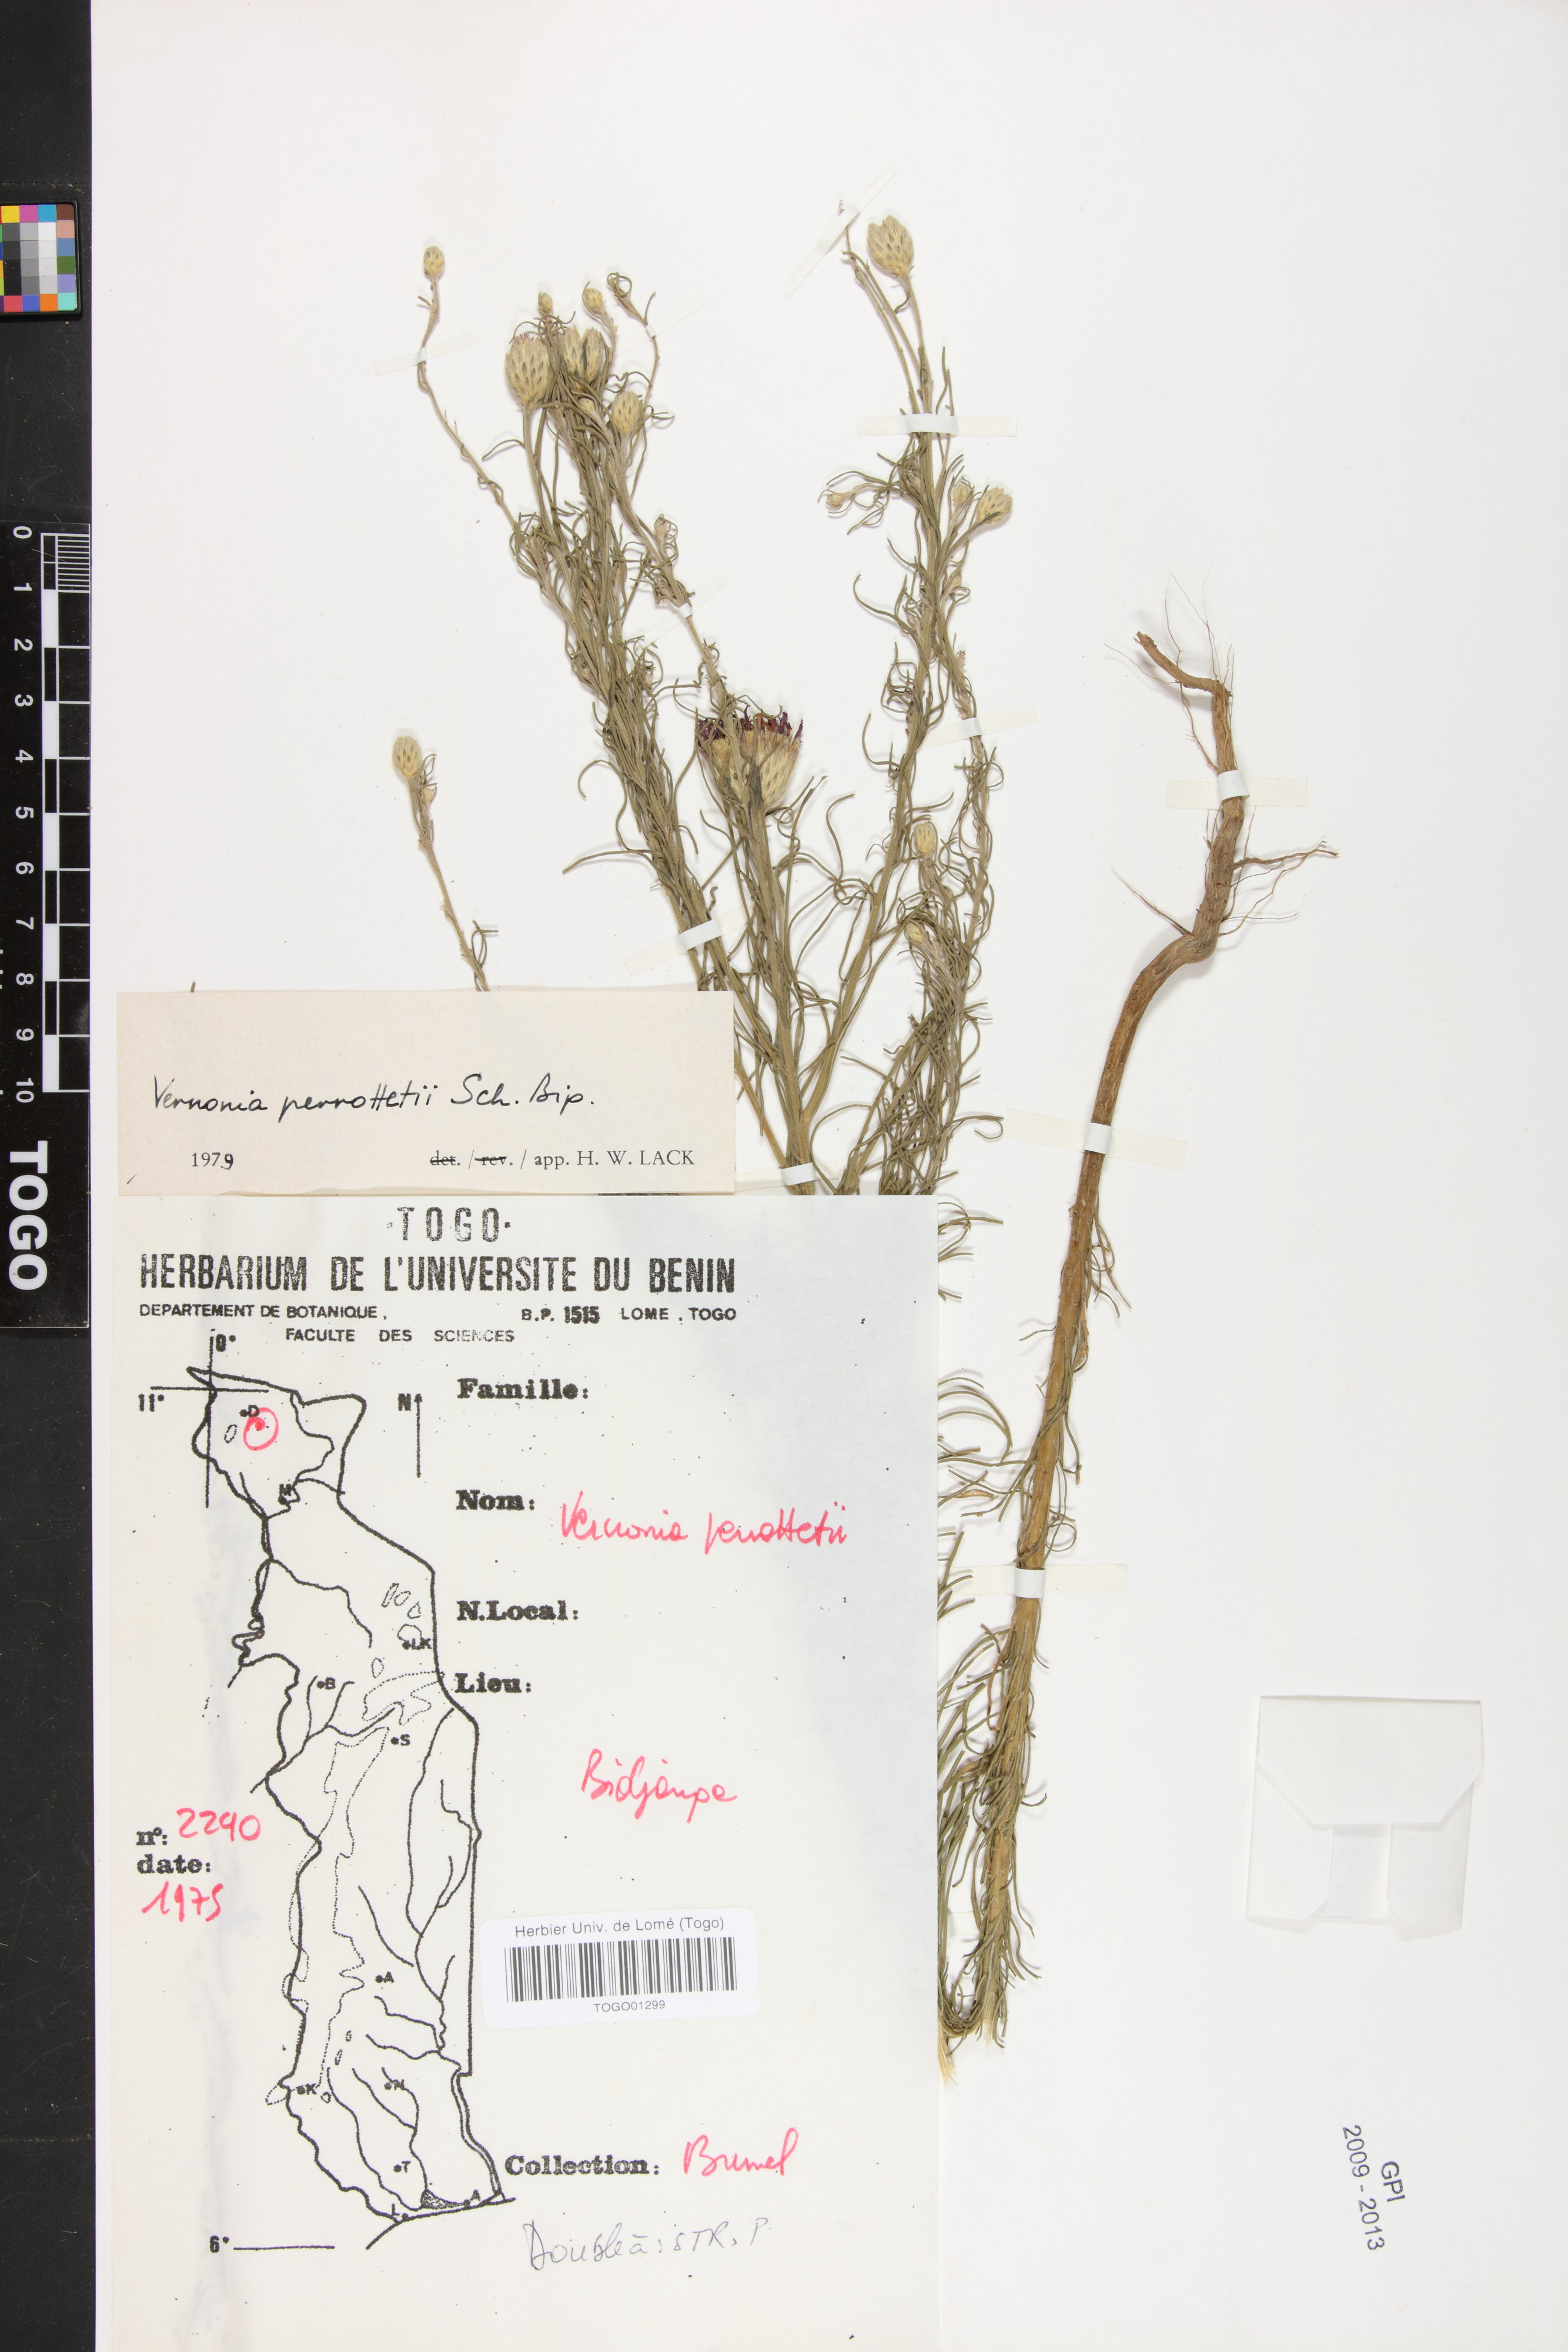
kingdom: Plantae
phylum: Tracheophyta
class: Magnoliopsida
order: Asterales
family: Asteraceae
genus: Crystallopollen
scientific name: Crystallopollen serratuloides
